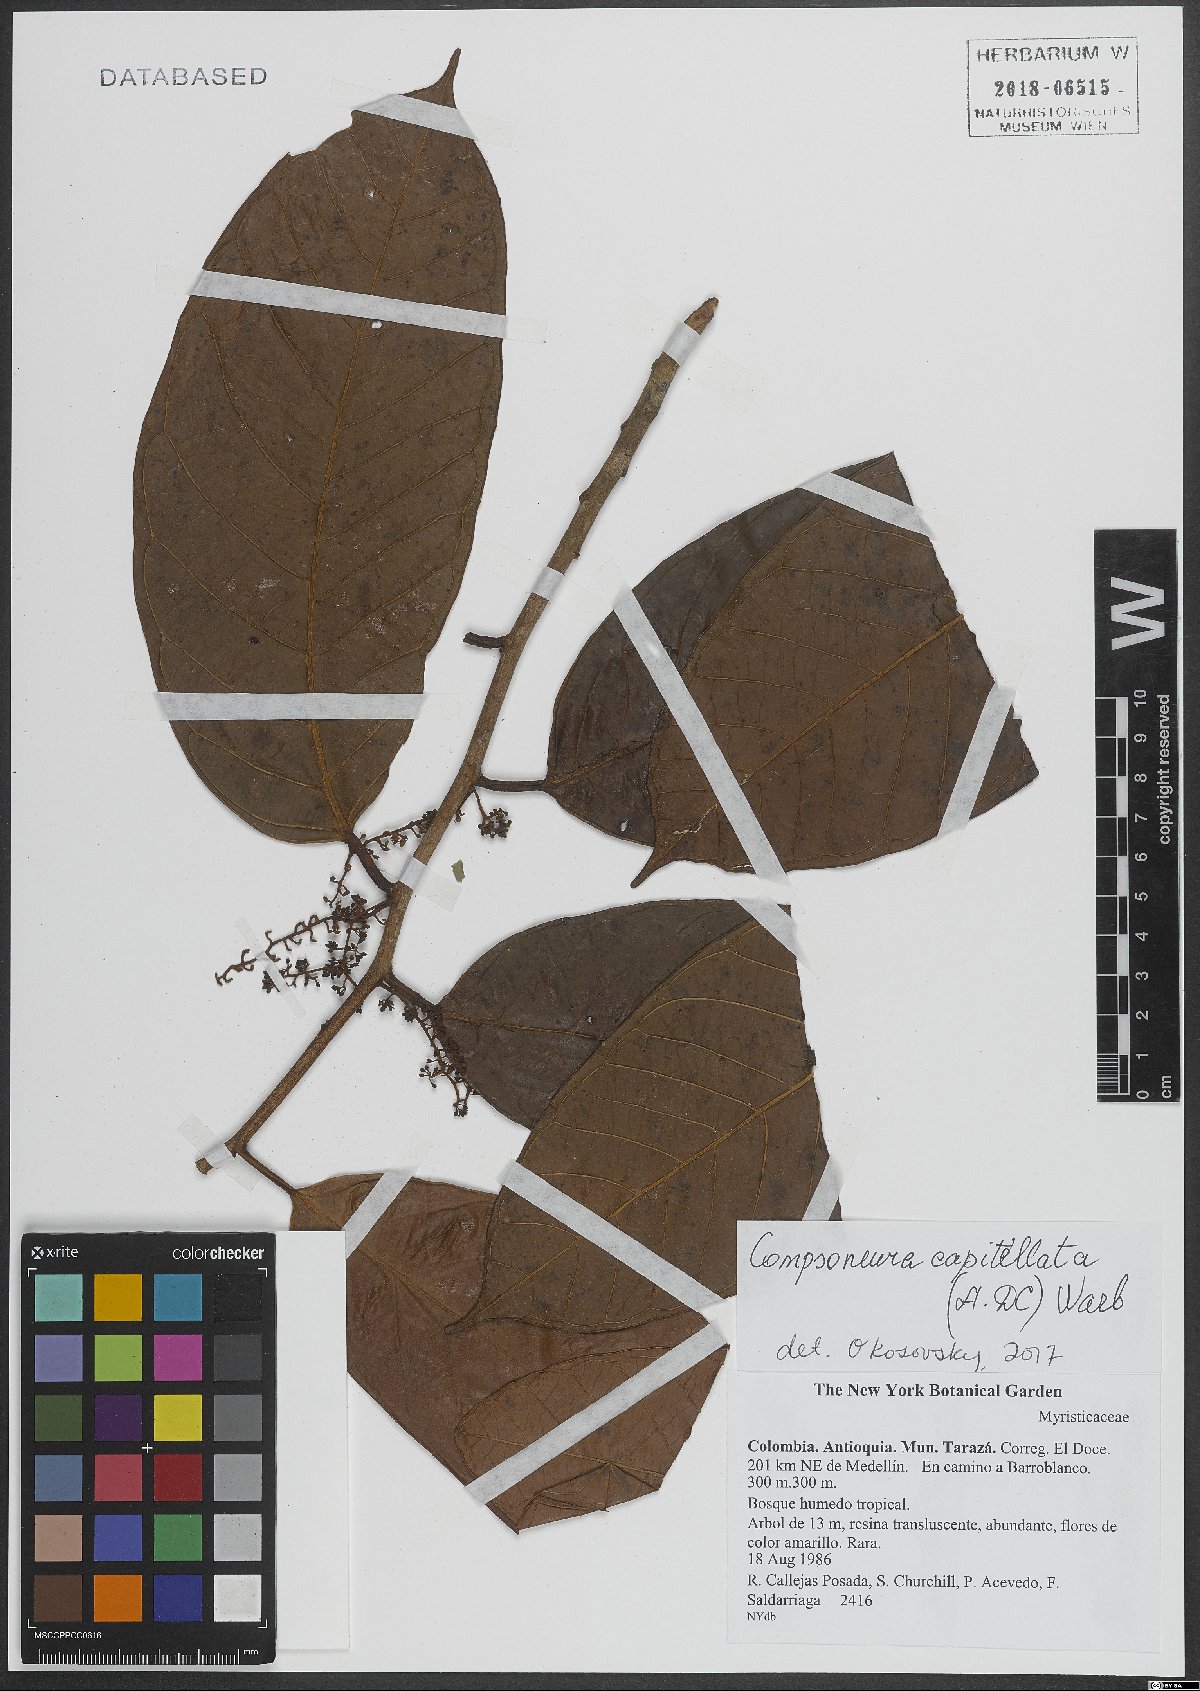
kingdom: Plantae
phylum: Tracheophyta
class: Magnoliopsida
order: Magnoliales
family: Myristicaceae
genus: Compsoneura
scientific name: Compsoneura capitellata
